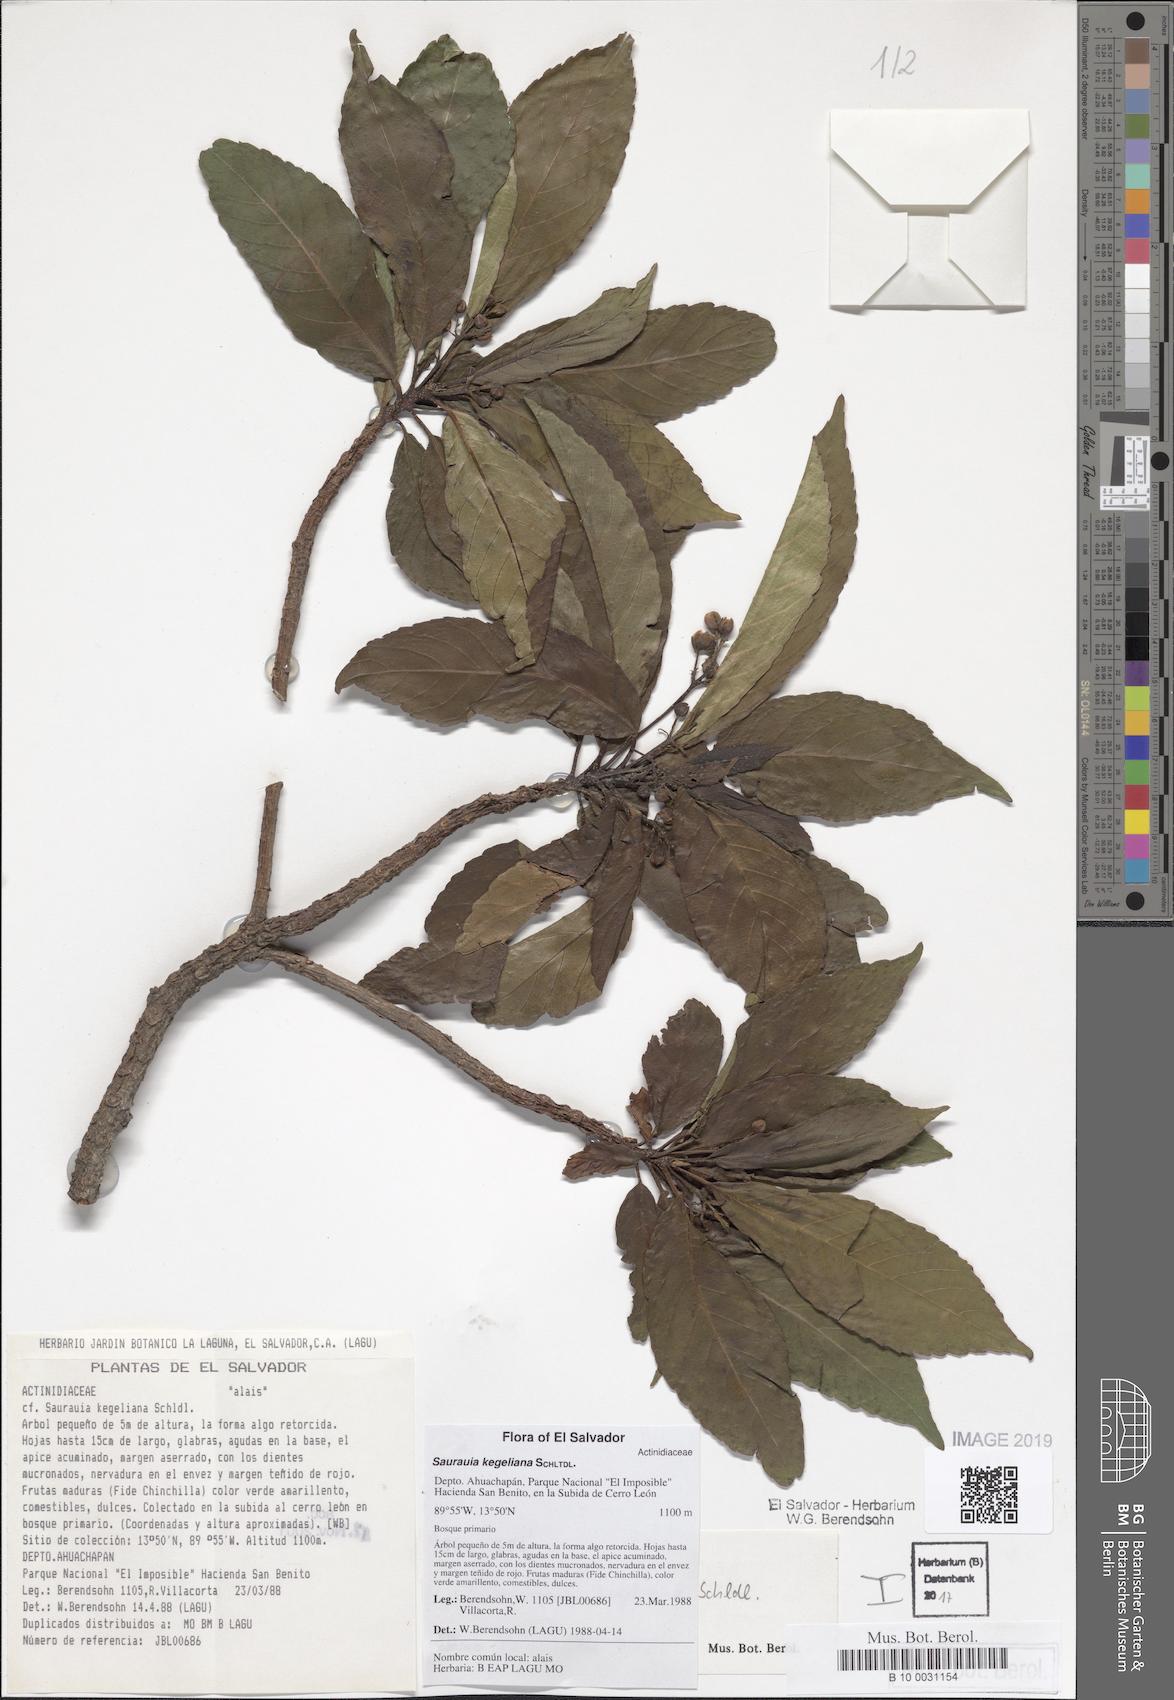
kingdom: Plantae
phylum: Tracheophyta
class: Magnoliopsida
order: Ericales
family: Actinidiaceae
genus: Saurauia
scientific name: Saurauia kegeliana
